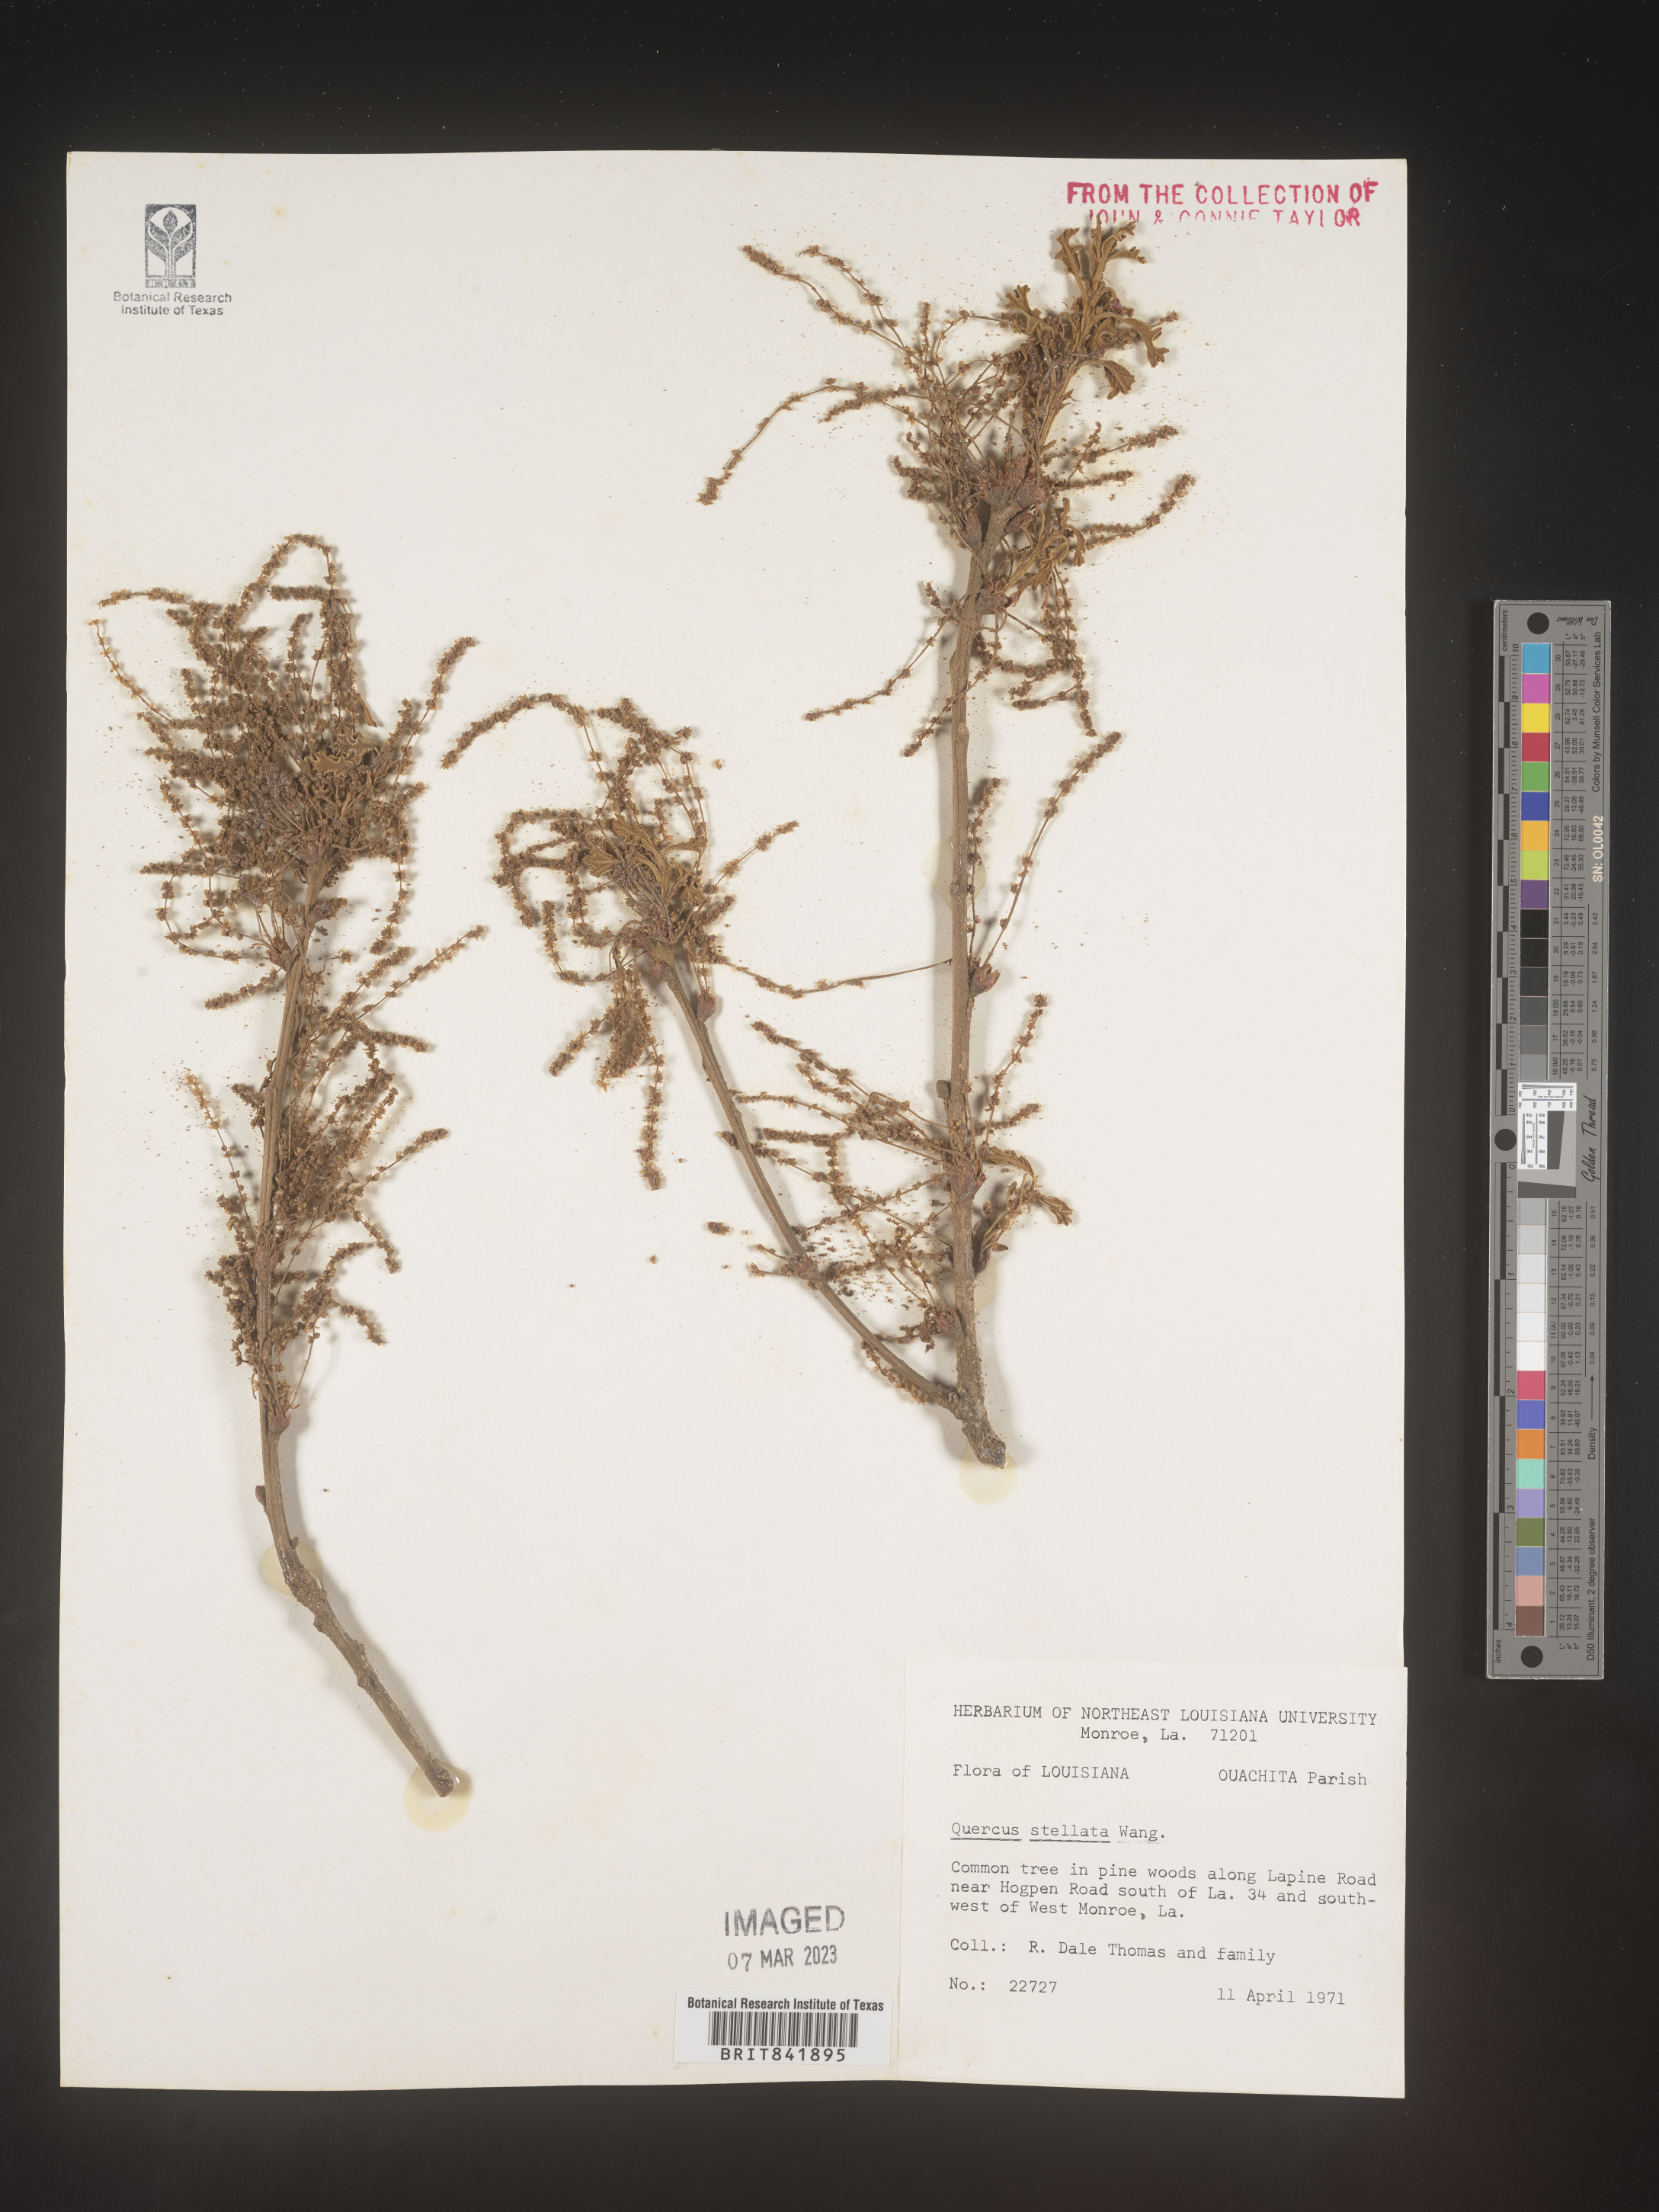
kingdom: Plantae
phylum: Tracheophyta
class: Magnoliopsida
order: Fagales
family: Fagaceae
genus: Quercus
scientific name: Quercus stellata
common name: Post oak
